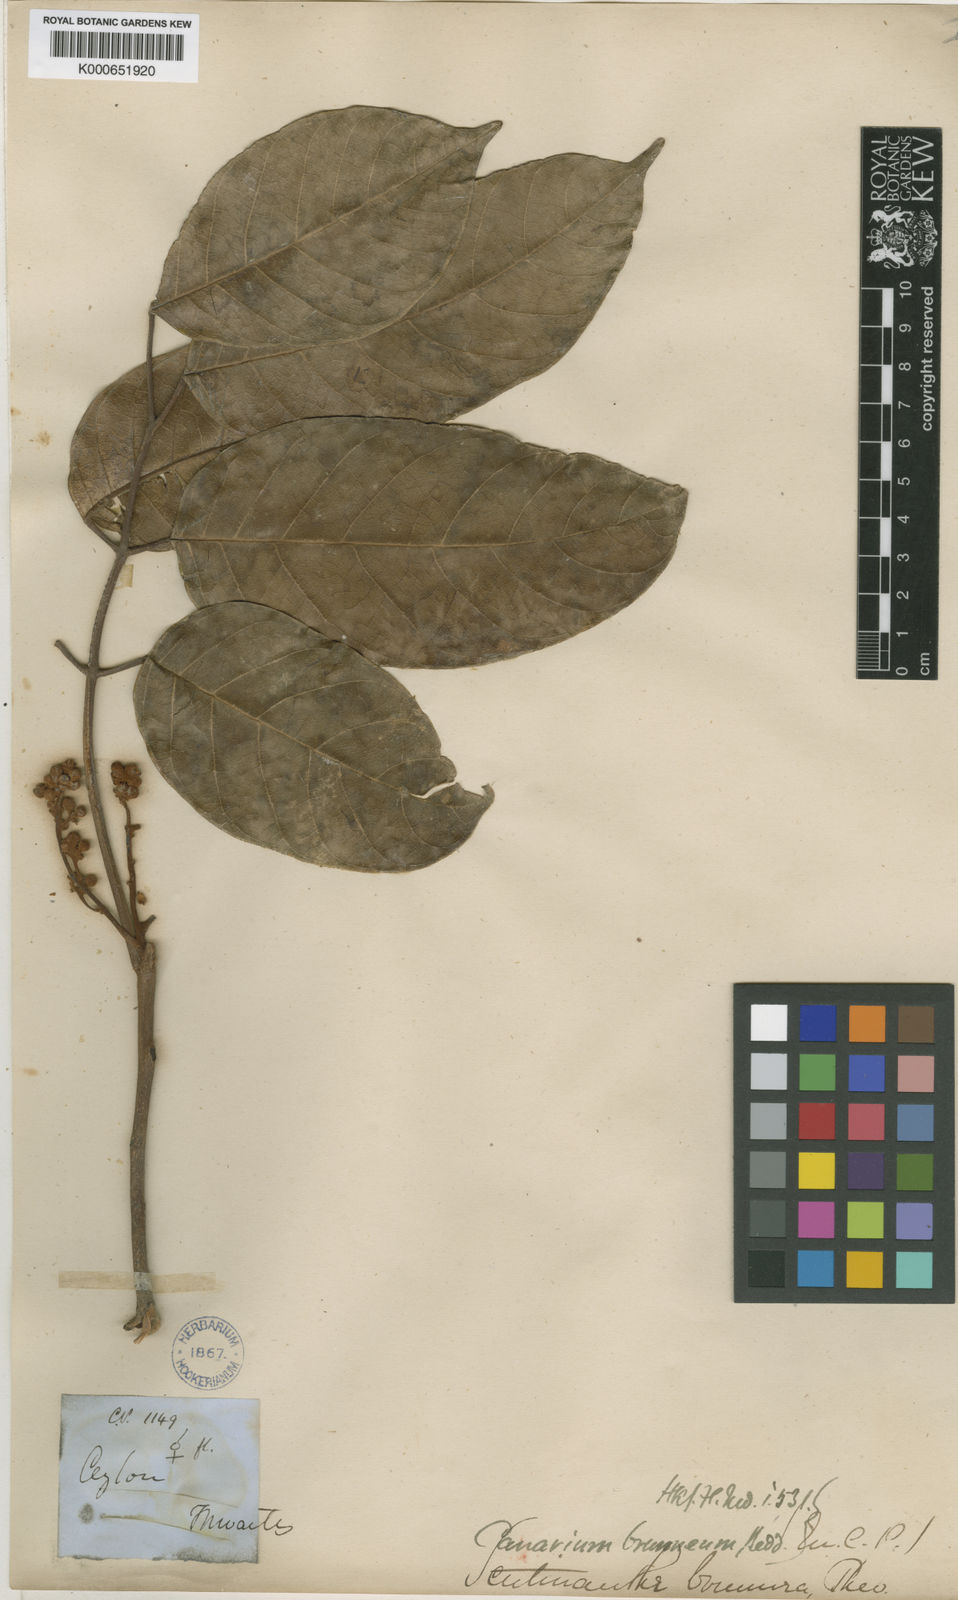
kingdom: Plantae
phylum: Tracheophyta
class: Magnoliopsida
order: Sapindales
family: Burseraceae
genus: Scutinanthe
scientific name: Scutinanthe brunnea
